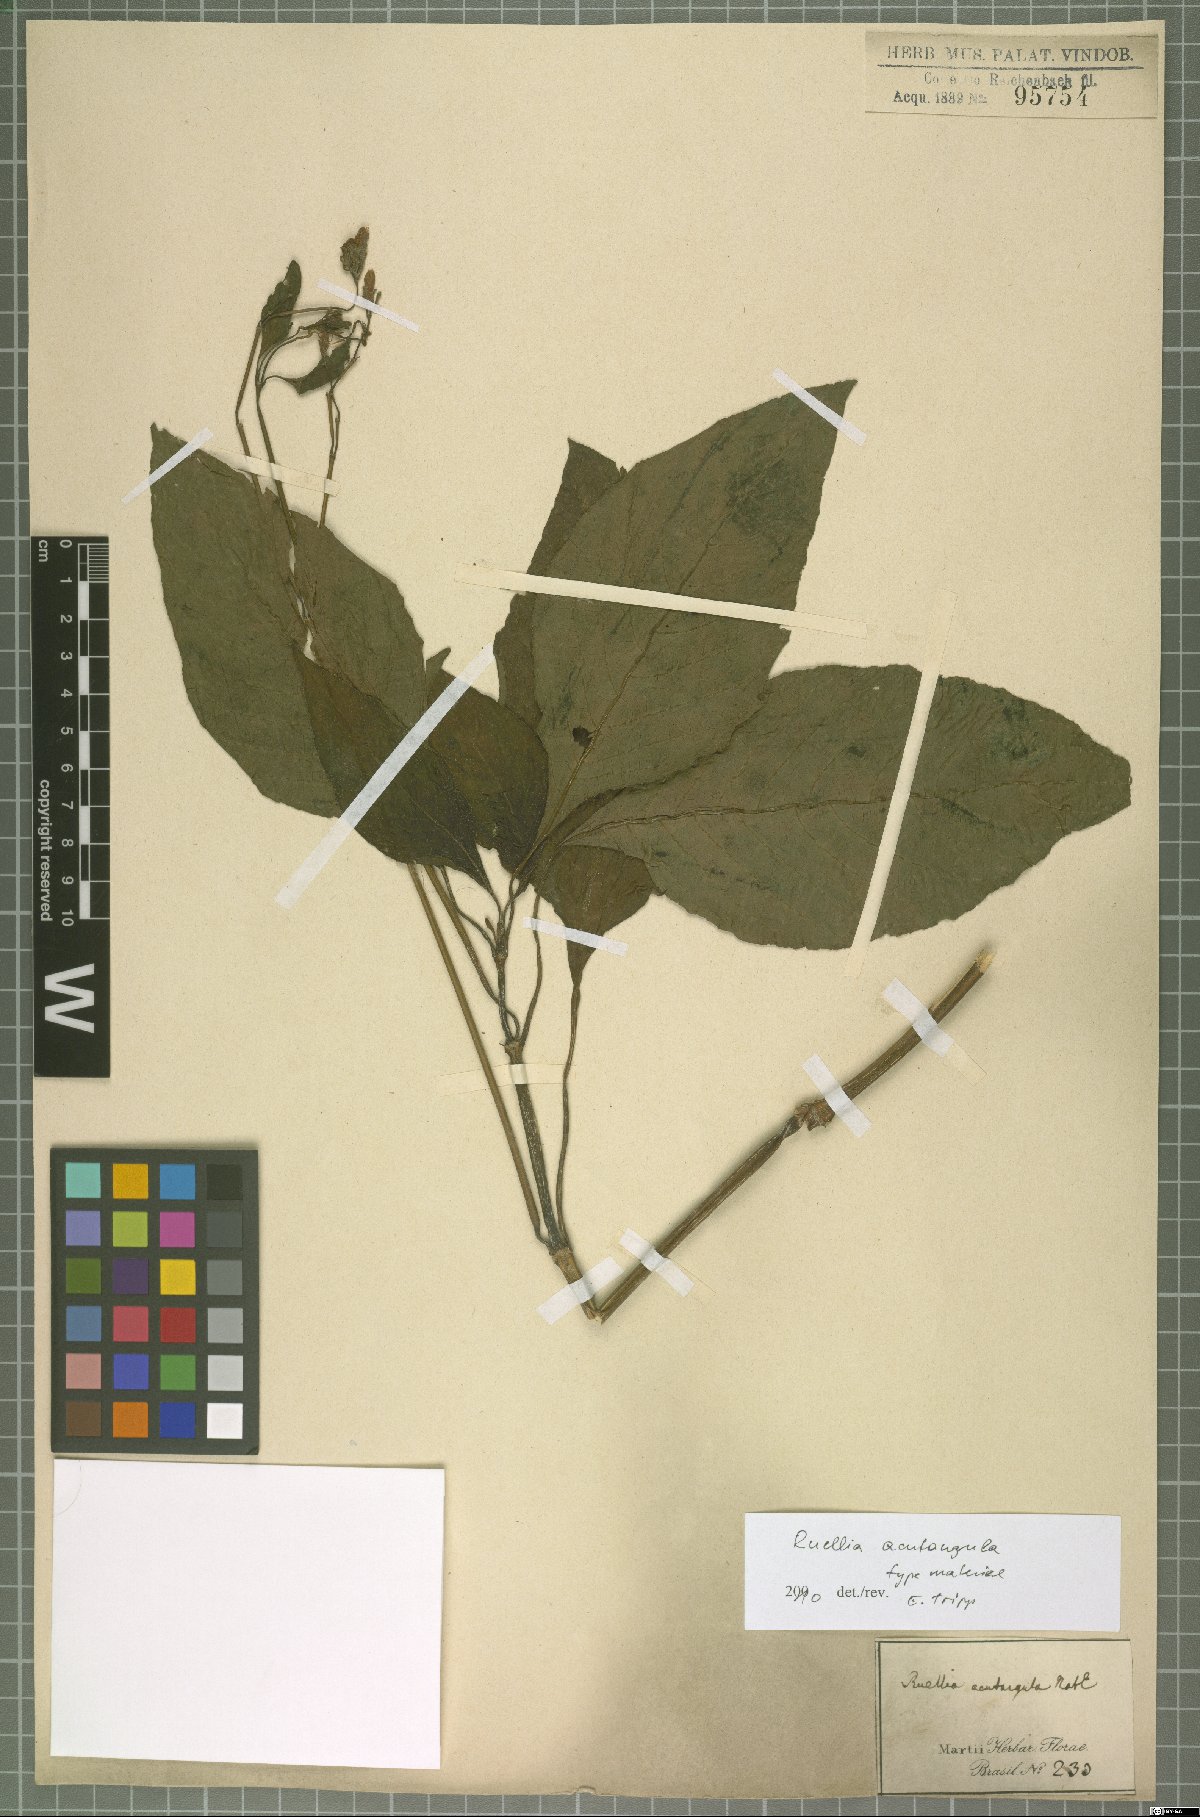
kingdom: Plantae
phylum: Tracheophyta
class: Magnoliopsida
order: Lamiales
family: Acanthaceae
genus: Ruellia
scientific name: Ruellia acutangula
